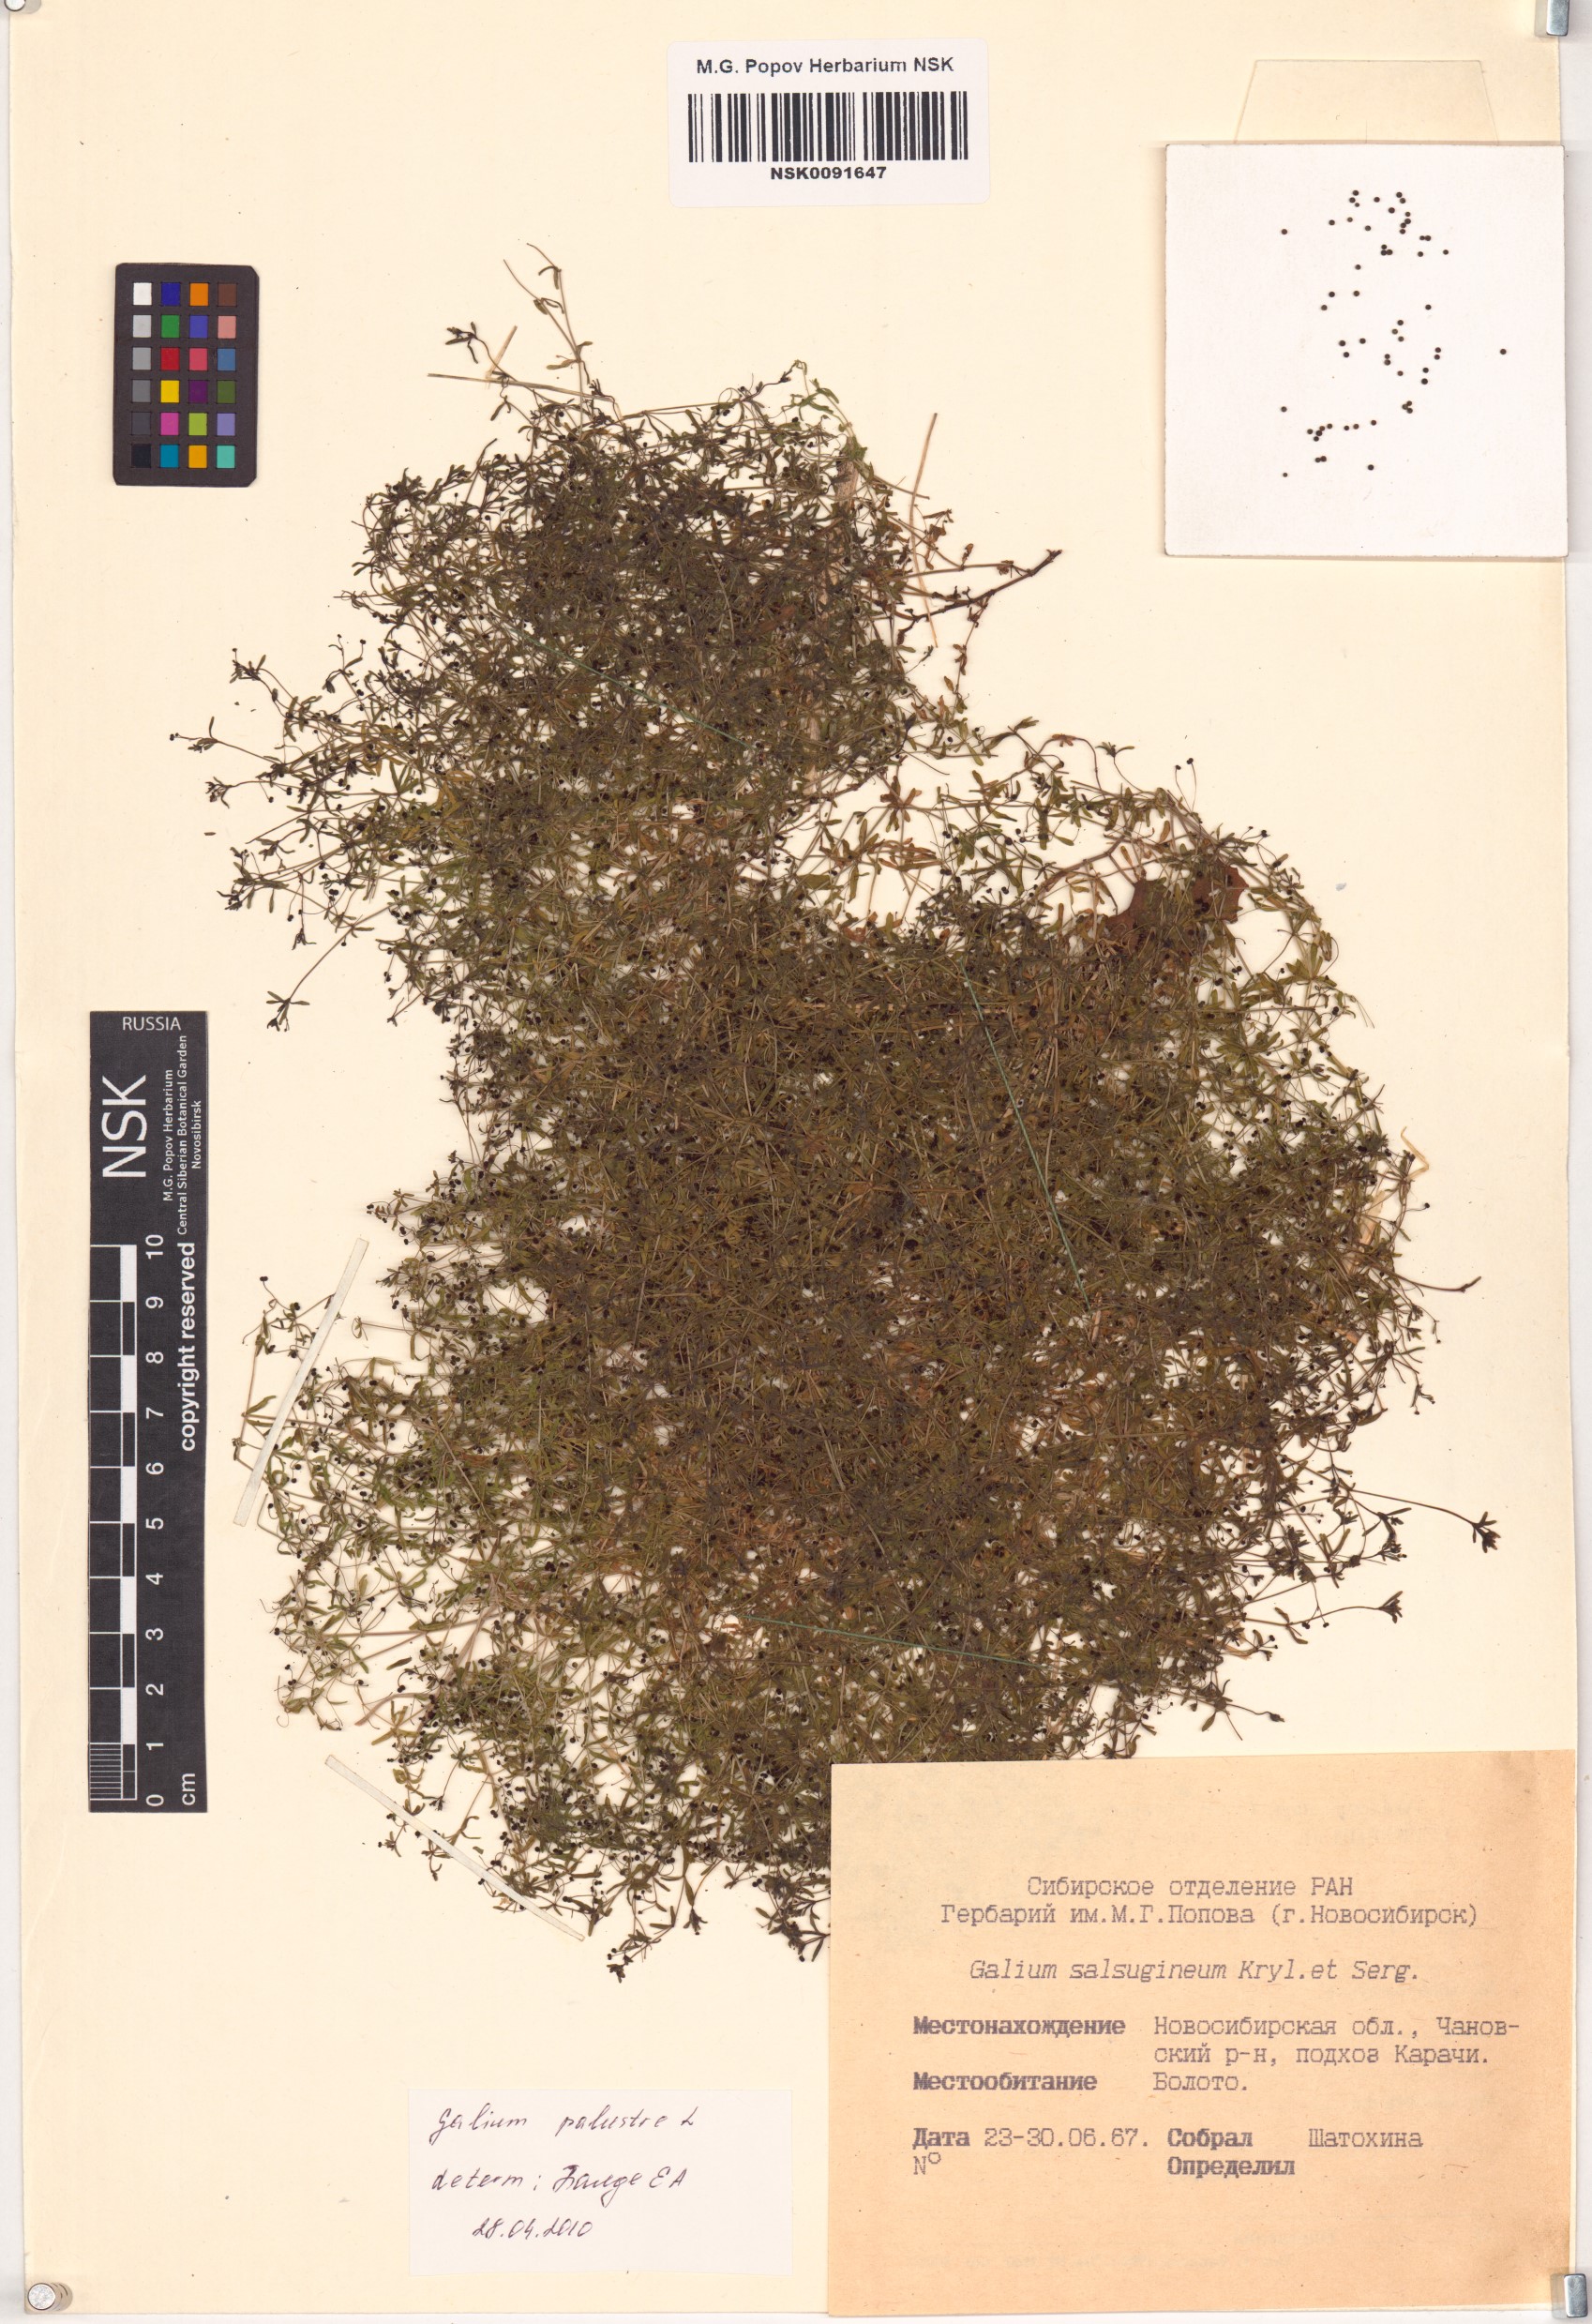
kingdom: Plantae
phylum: Tracheophyta
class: Magnoliopsida
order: Gentianales
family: Rubiaceae
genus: Galium
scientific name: Galium palustre
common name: Common marsh-bedstraw
